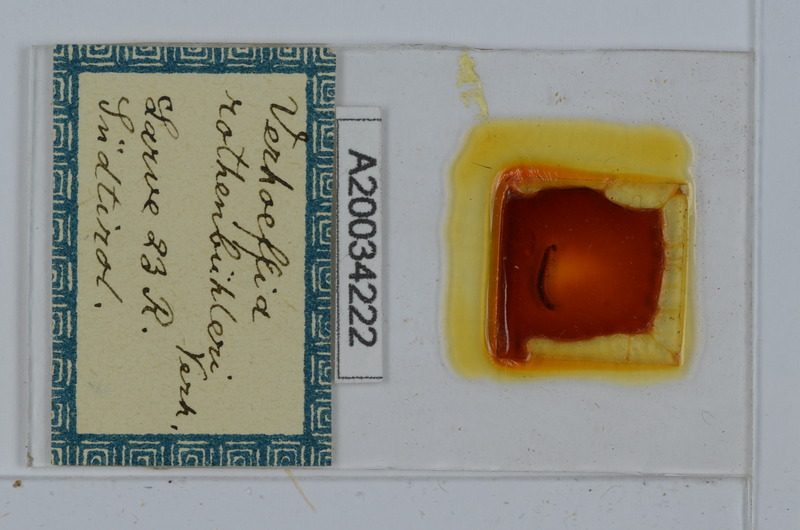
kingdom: Animalia
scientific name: Animalia
